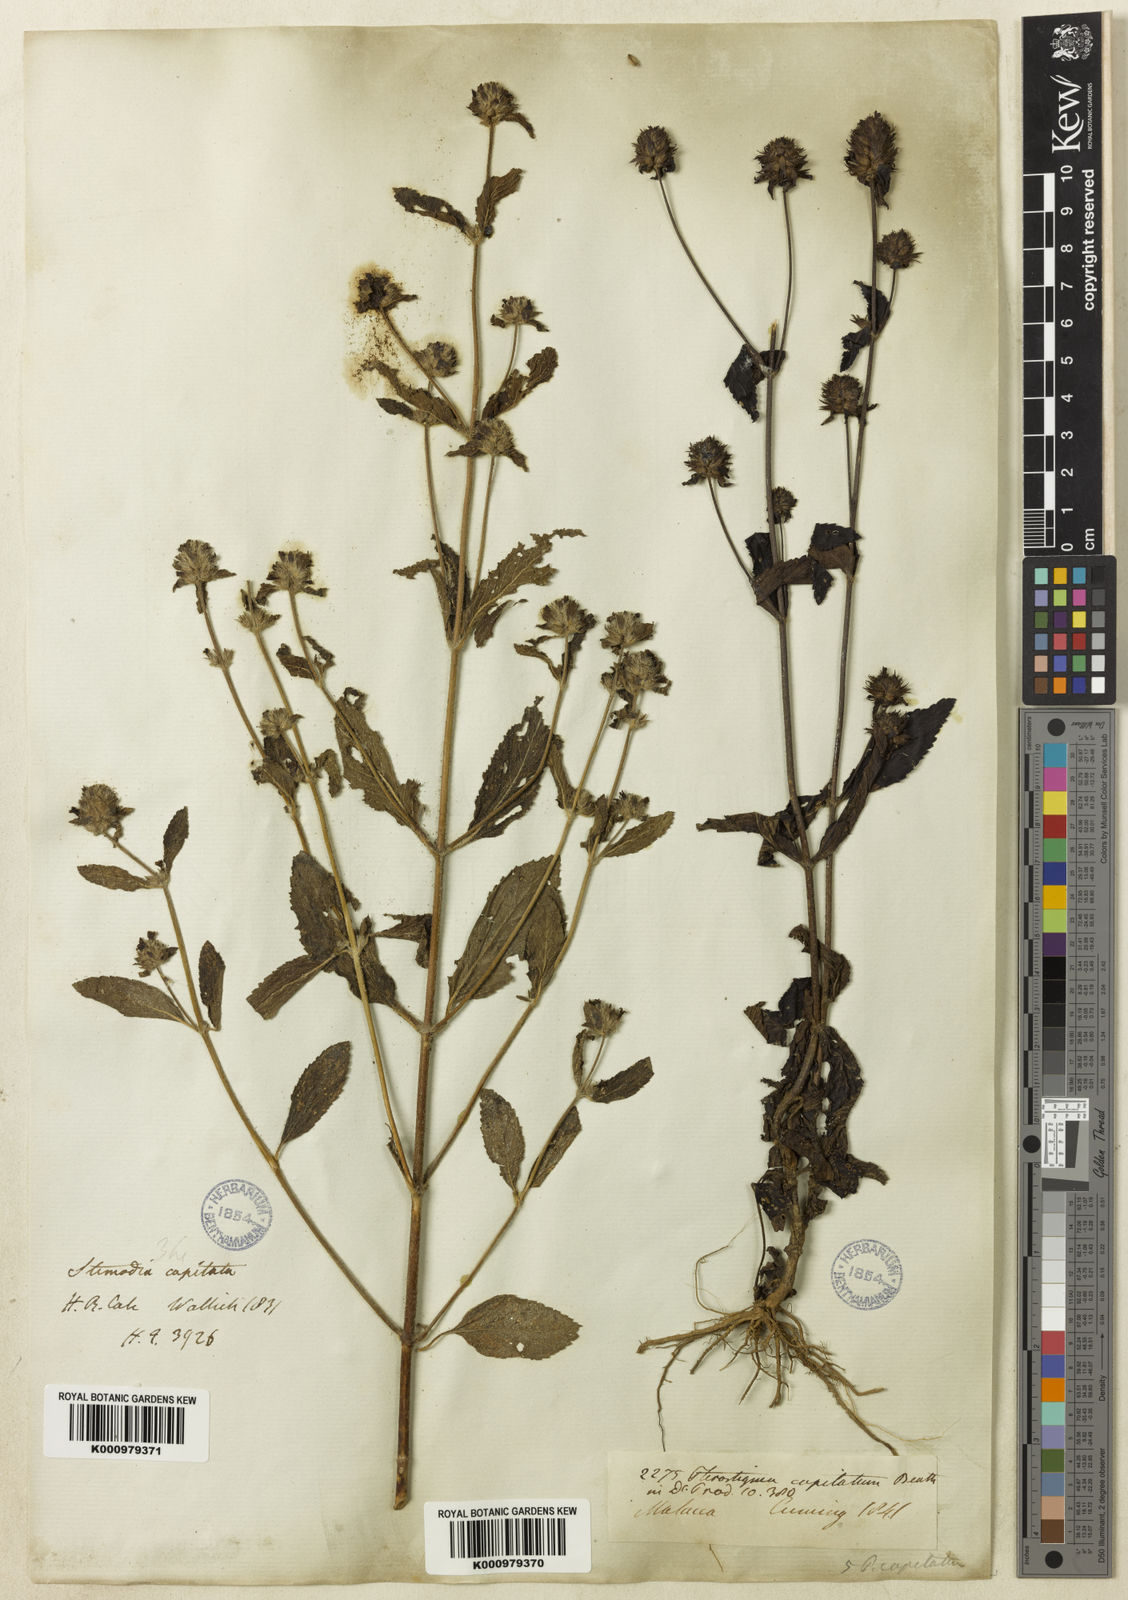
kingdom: Plantae
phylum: Tracheophyta
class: Magnoliopsida
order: Lamiales
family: Plantaginaceae
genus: Adenosma
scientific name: Adenosma indiana
